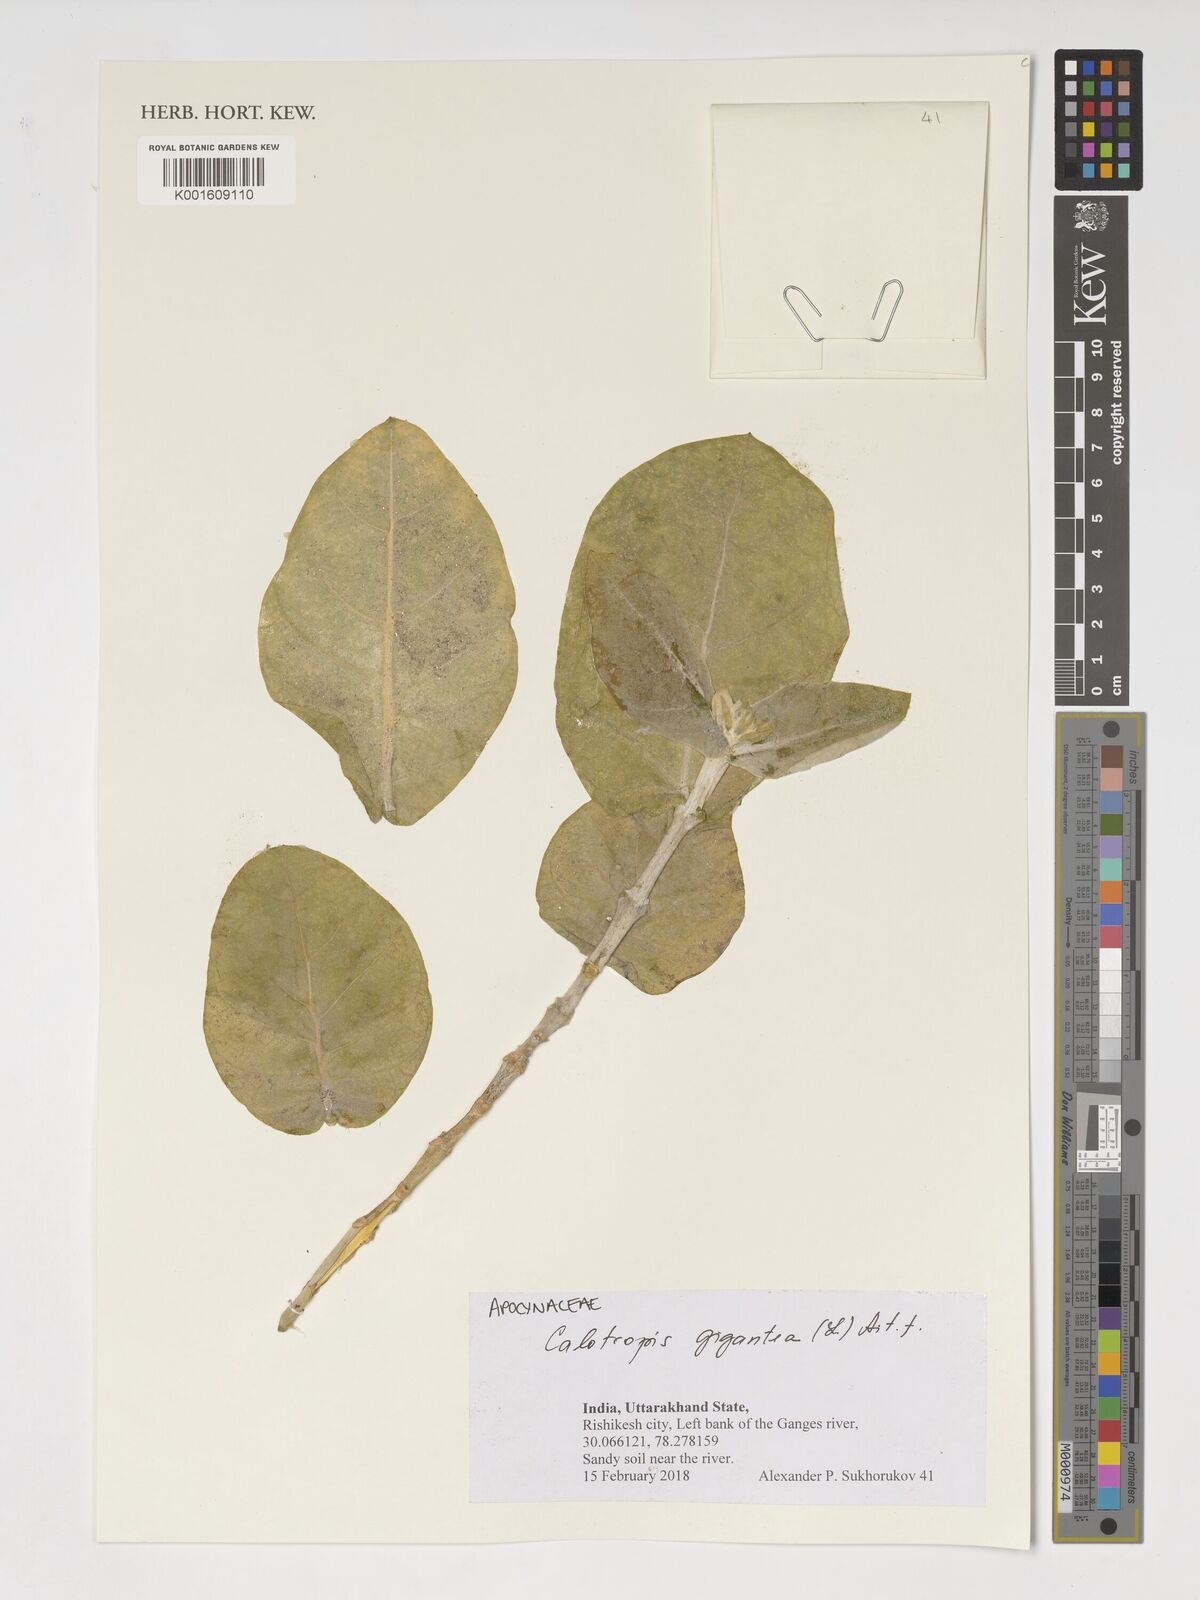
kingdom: Plantae
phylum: Tracheophyta
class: Magnoliopsida
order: Gentianales
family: Apocynaceae
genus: Calotropis
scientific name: Calotropis gigantea
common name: Crown flower
